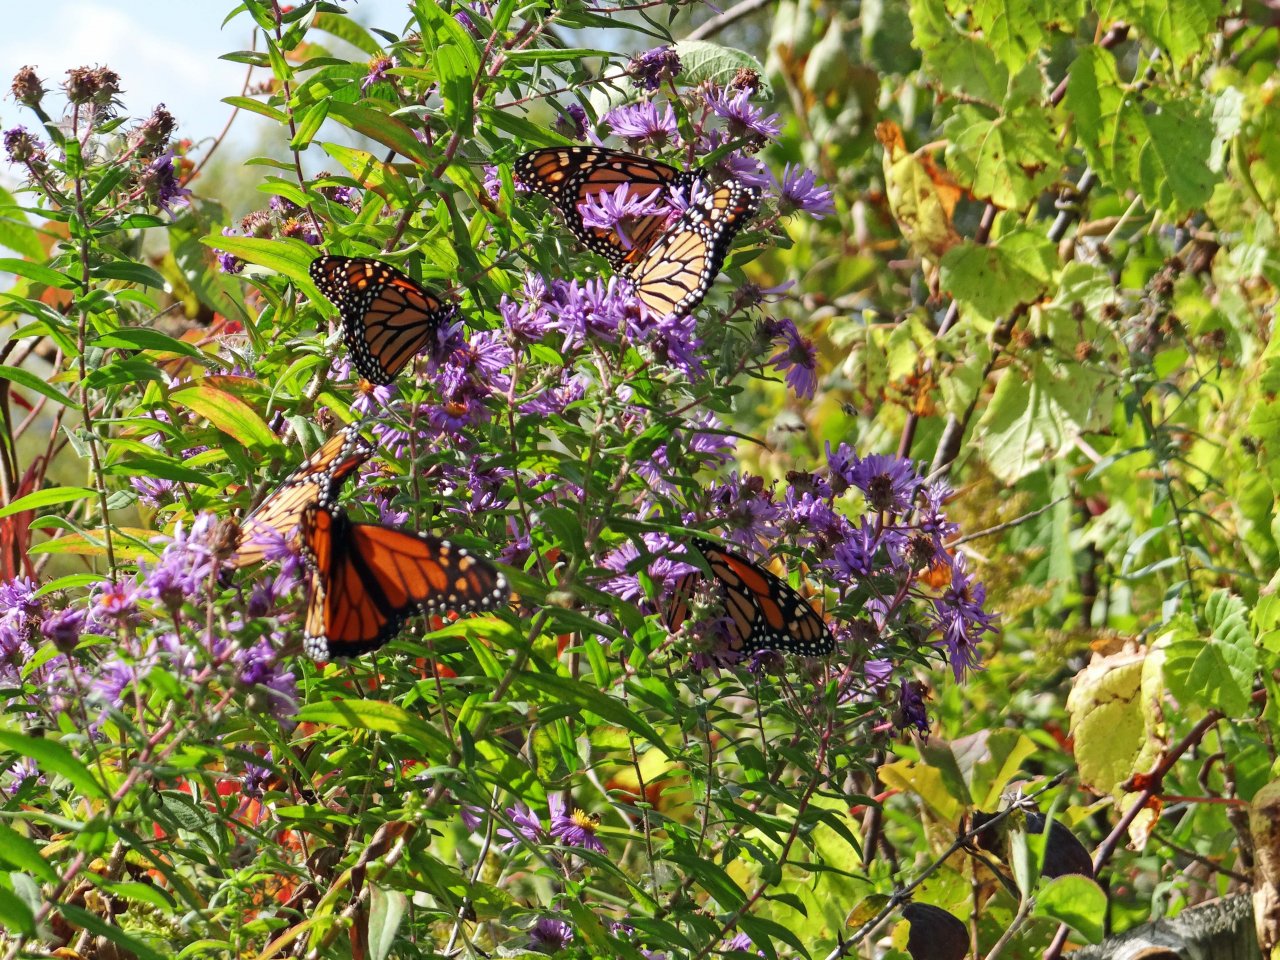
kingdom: Animalia
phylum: Arthropoda
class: Insecta
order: Lepidoptera
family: Nymphalidae
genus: Danaus
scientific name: Danaus plexippus
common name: Monarch
